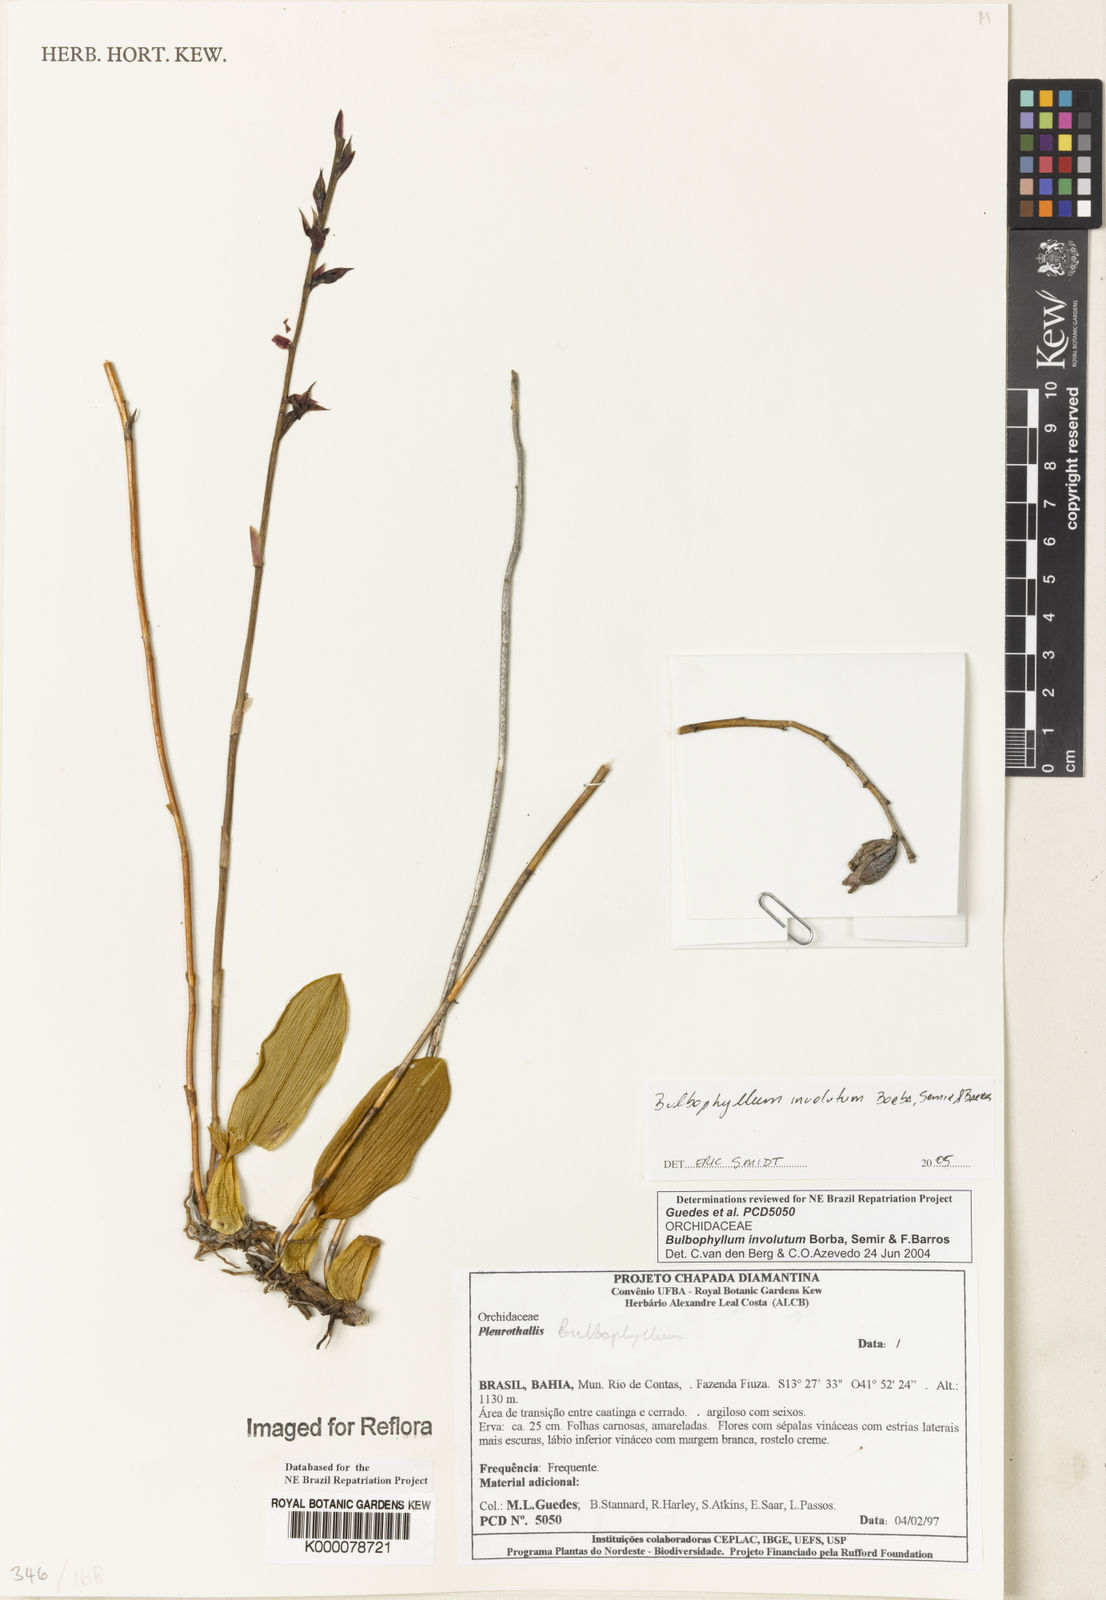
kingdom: Plantae
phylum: Tracheophyta
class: Liliopsida
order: Asparagales
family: Orchidaceae
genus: Bulbophyllum
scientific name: Bulbophyllum
